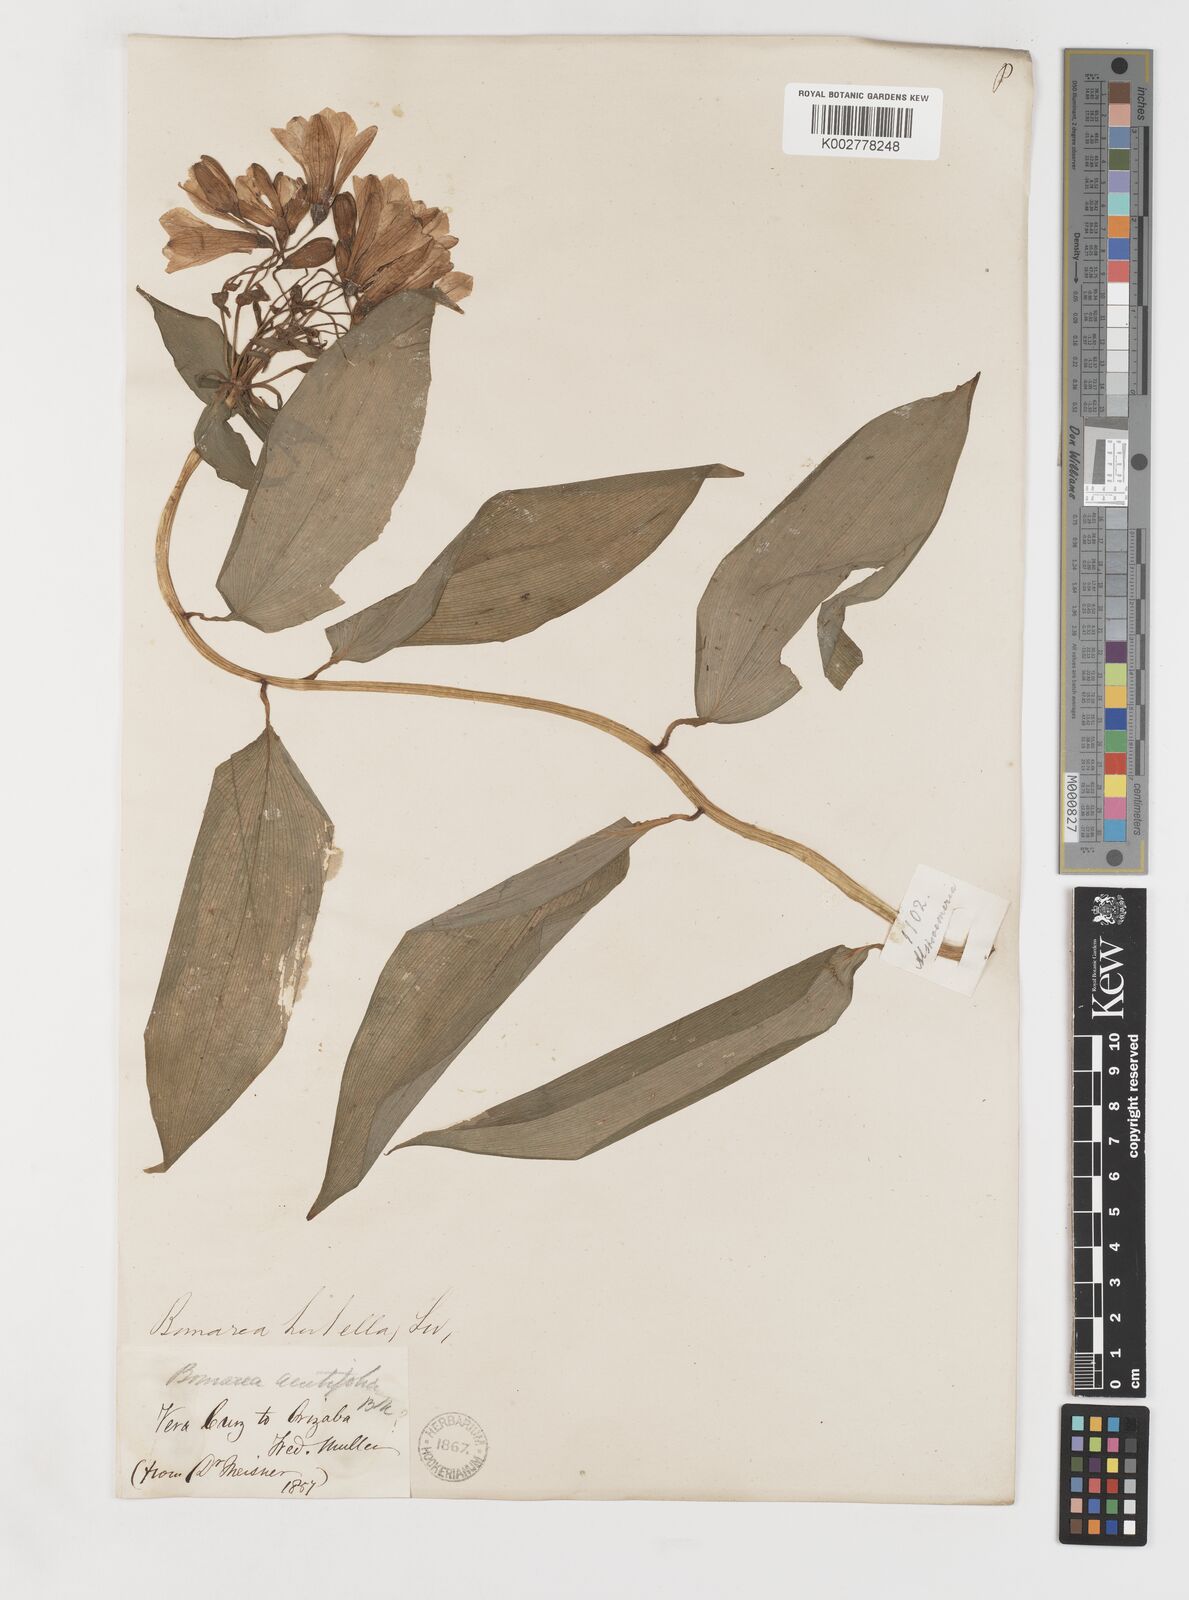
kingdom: Plantae
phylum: Tracheophyta
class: Liliopsida
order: Liliales
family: Alstroemeriaceae
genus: Bomarea
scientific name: Bomarea acutifolia
